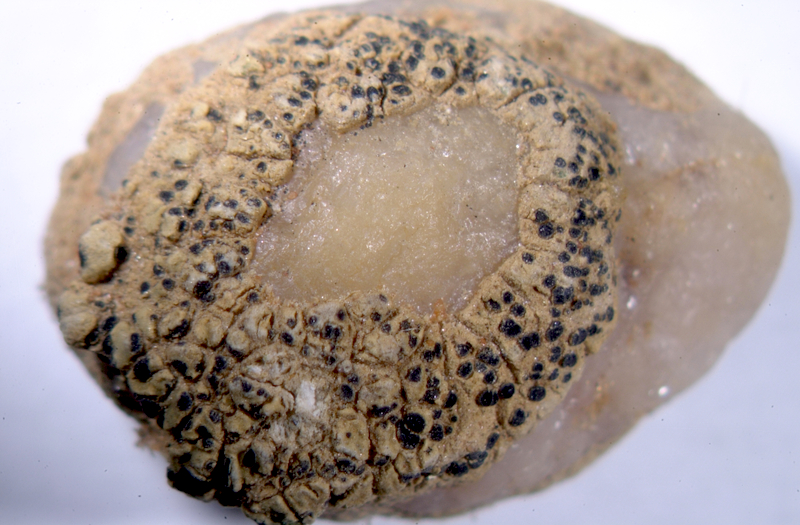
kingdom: Fungi
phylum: Ascomycota
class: Lecanoromycetes
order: Caliciales
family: Physciaceae
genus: Physcia
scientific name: Physcia
